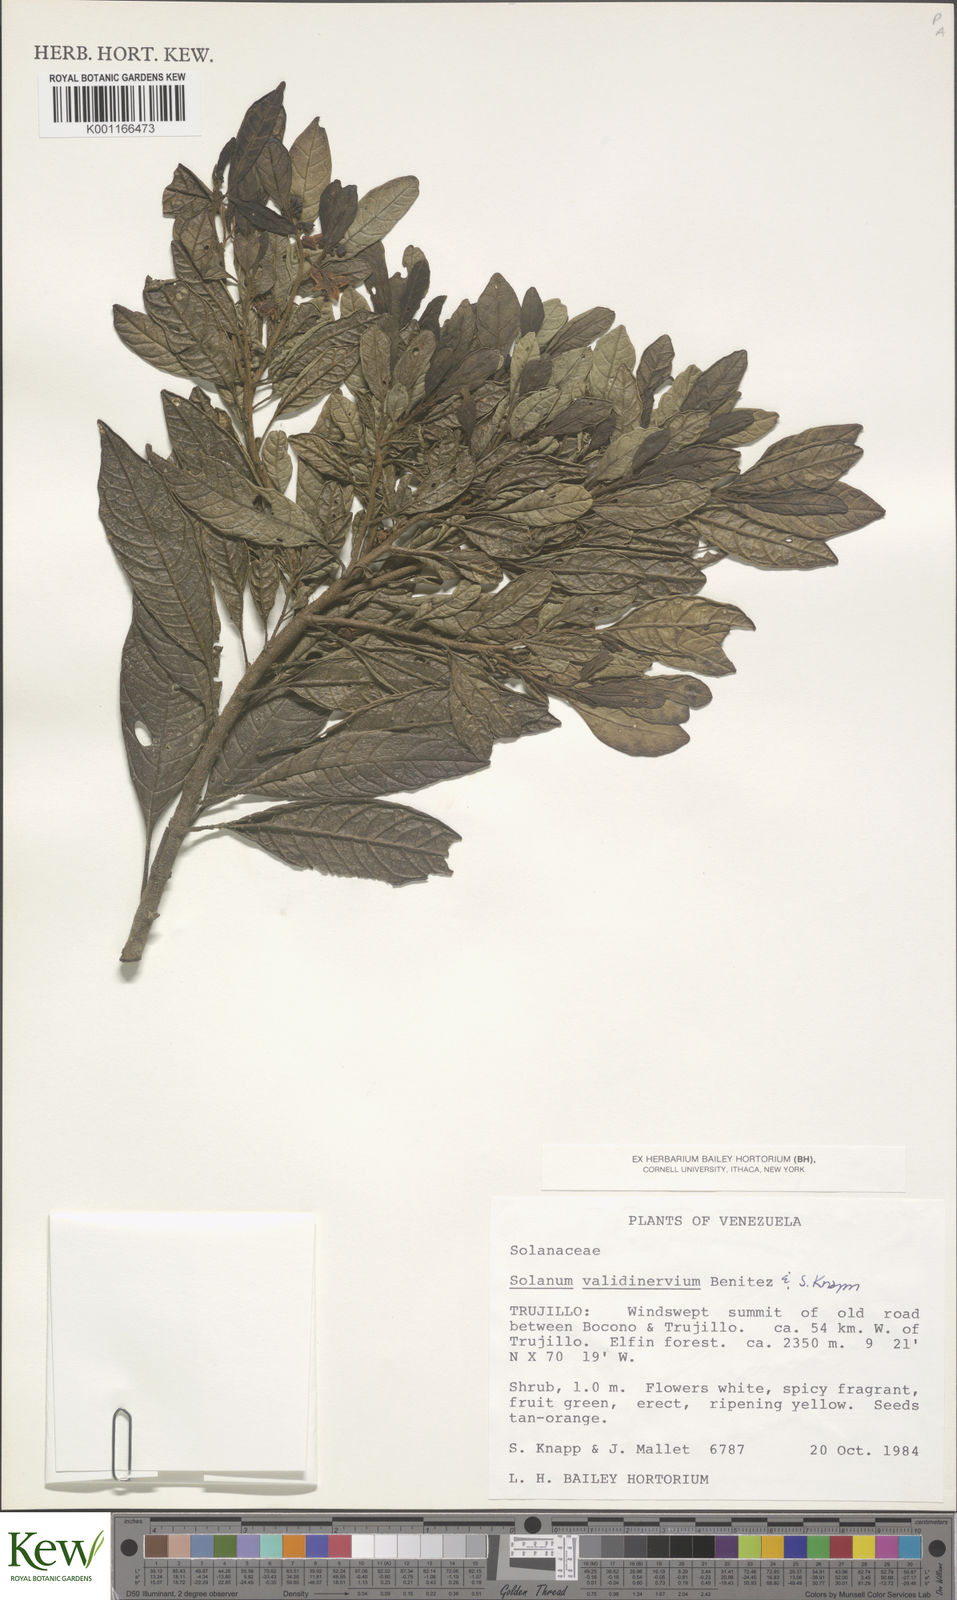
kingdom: Plantae
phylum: Tracheophyta
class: Magnoliopsida
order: Solanales
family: Solanaceae
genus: Solanum
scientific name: Solanum
